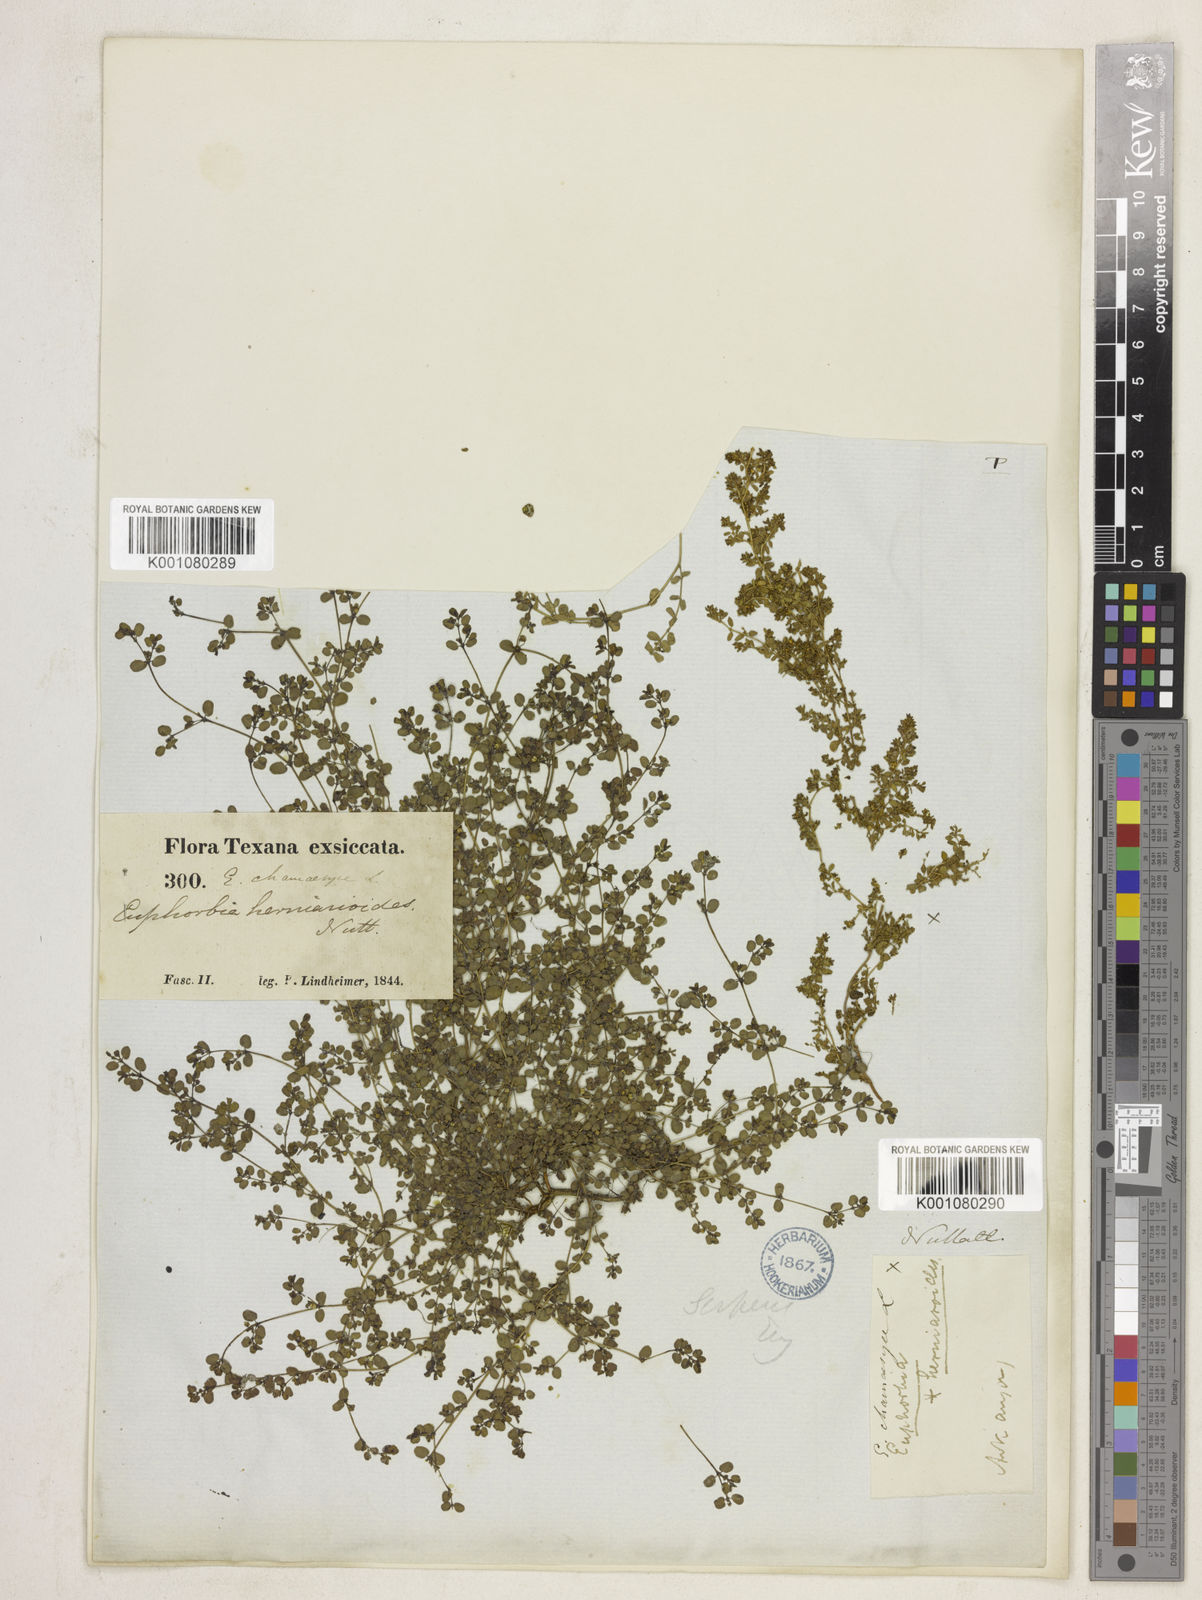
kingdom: Plantae
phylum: Tracheophyta
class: Magnoliopsida
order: Malpighiales
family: Euphorbiaceae
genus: Euphorbia
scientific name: Euphorbia
